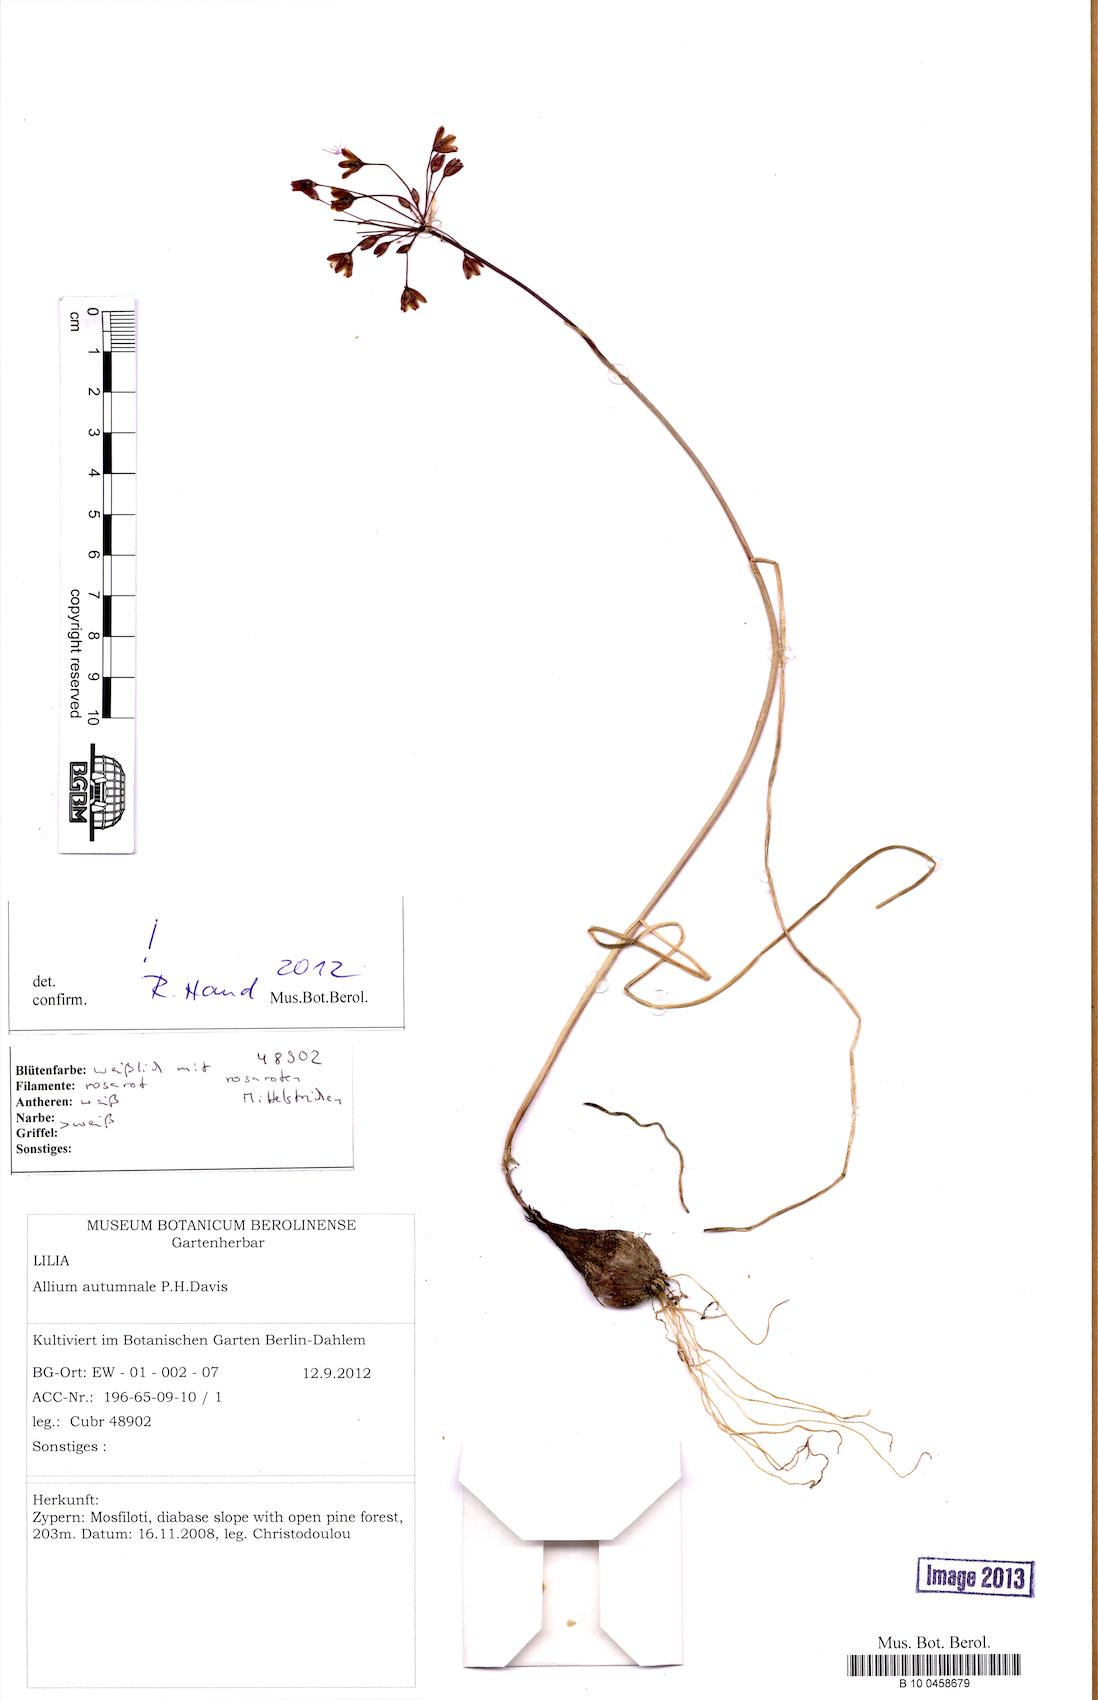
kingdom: Plantae
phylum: Tracheophyta
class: Liliopsida
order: Asparagales
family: Amaryllidaceae
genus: Allium
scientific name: Allium autumnale
